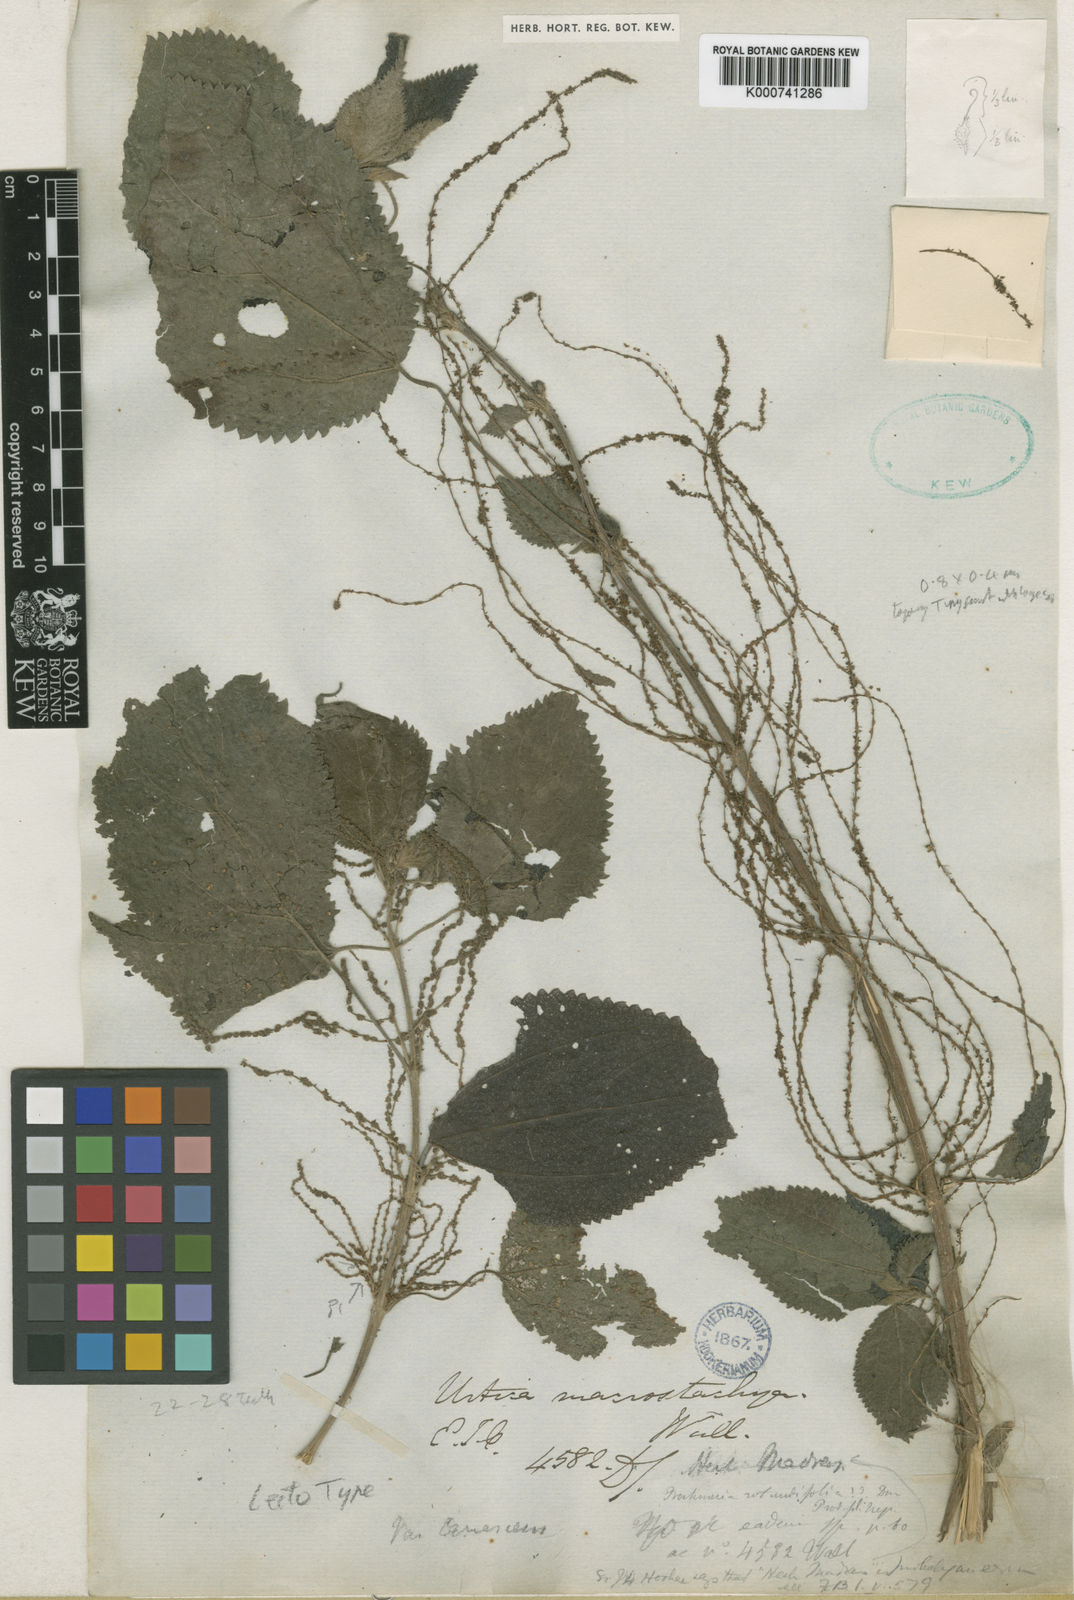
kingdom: Plantae
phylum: Tracheophyta
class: Magnoliopsida
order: Rosales
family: Urticaceae
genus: Boehmeria
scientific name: Boehmeria virgata
